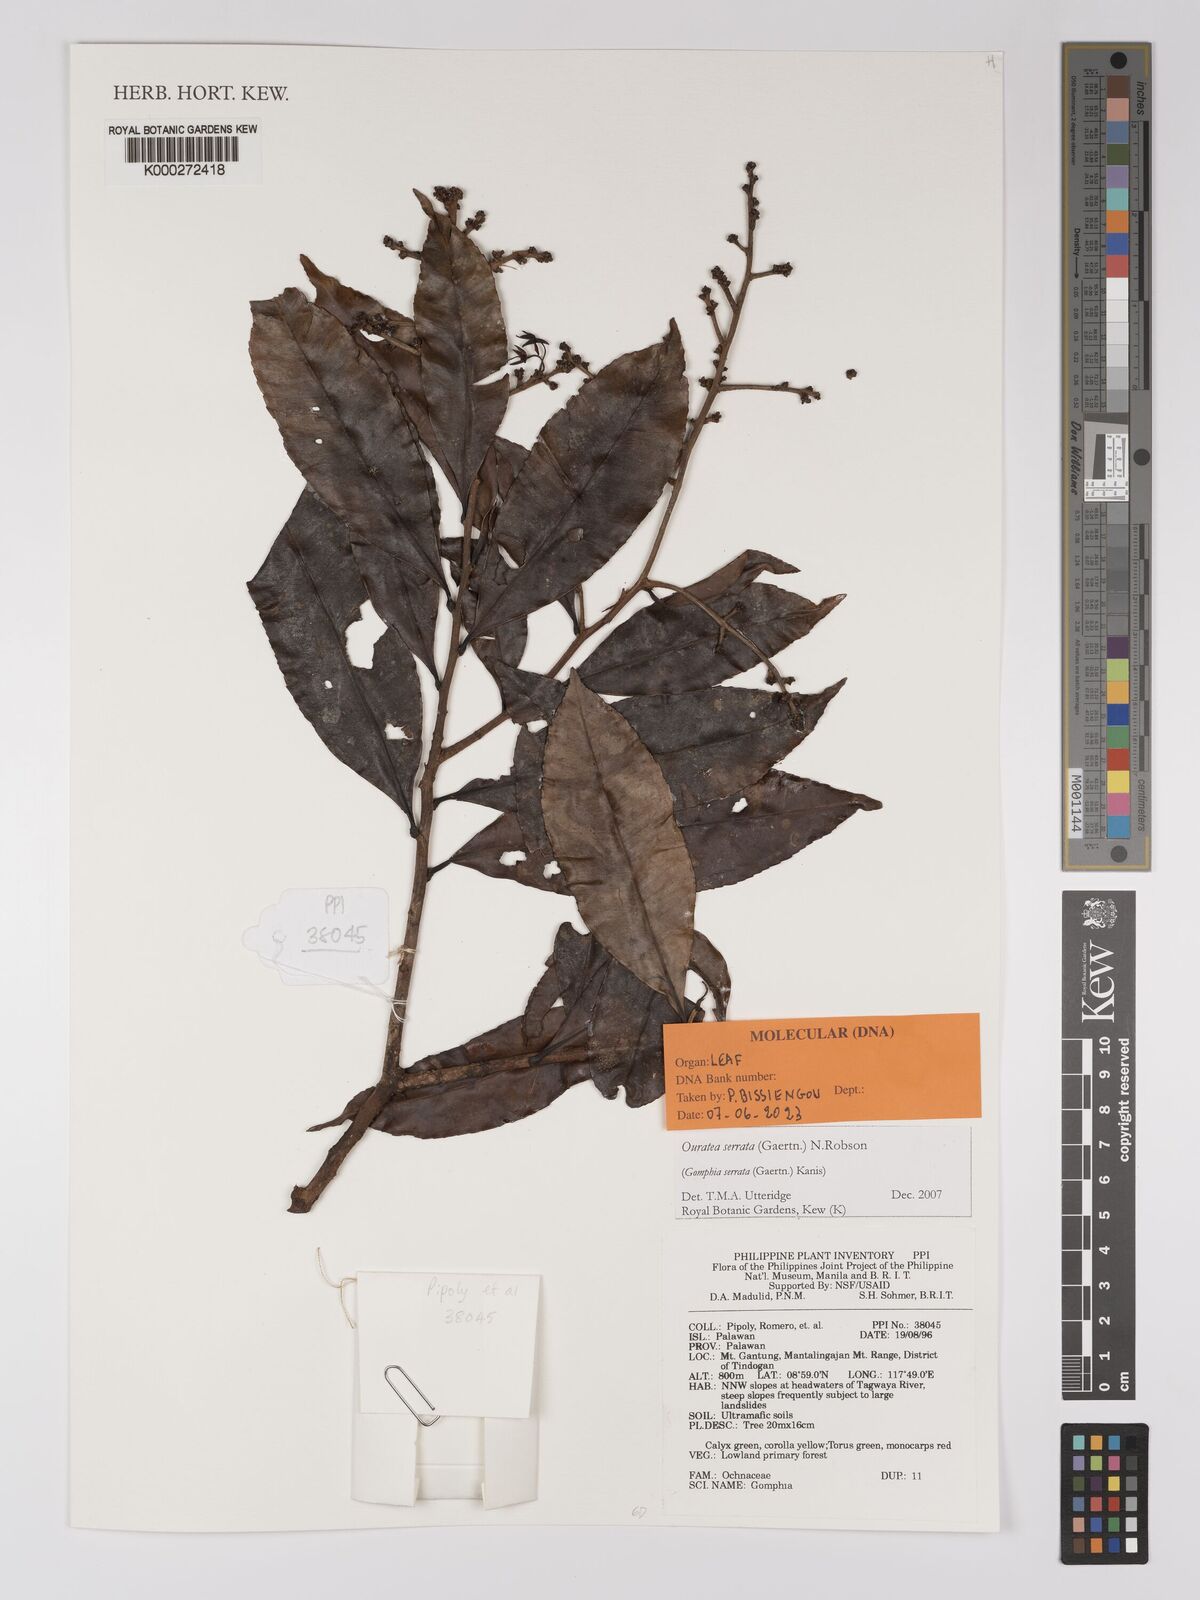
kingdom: Plantae
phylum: Tracheophyta
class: Magnoliopsida
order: Malpighiales
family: Ochnaceae
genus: Gomphia
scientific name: Gomphia serrata
